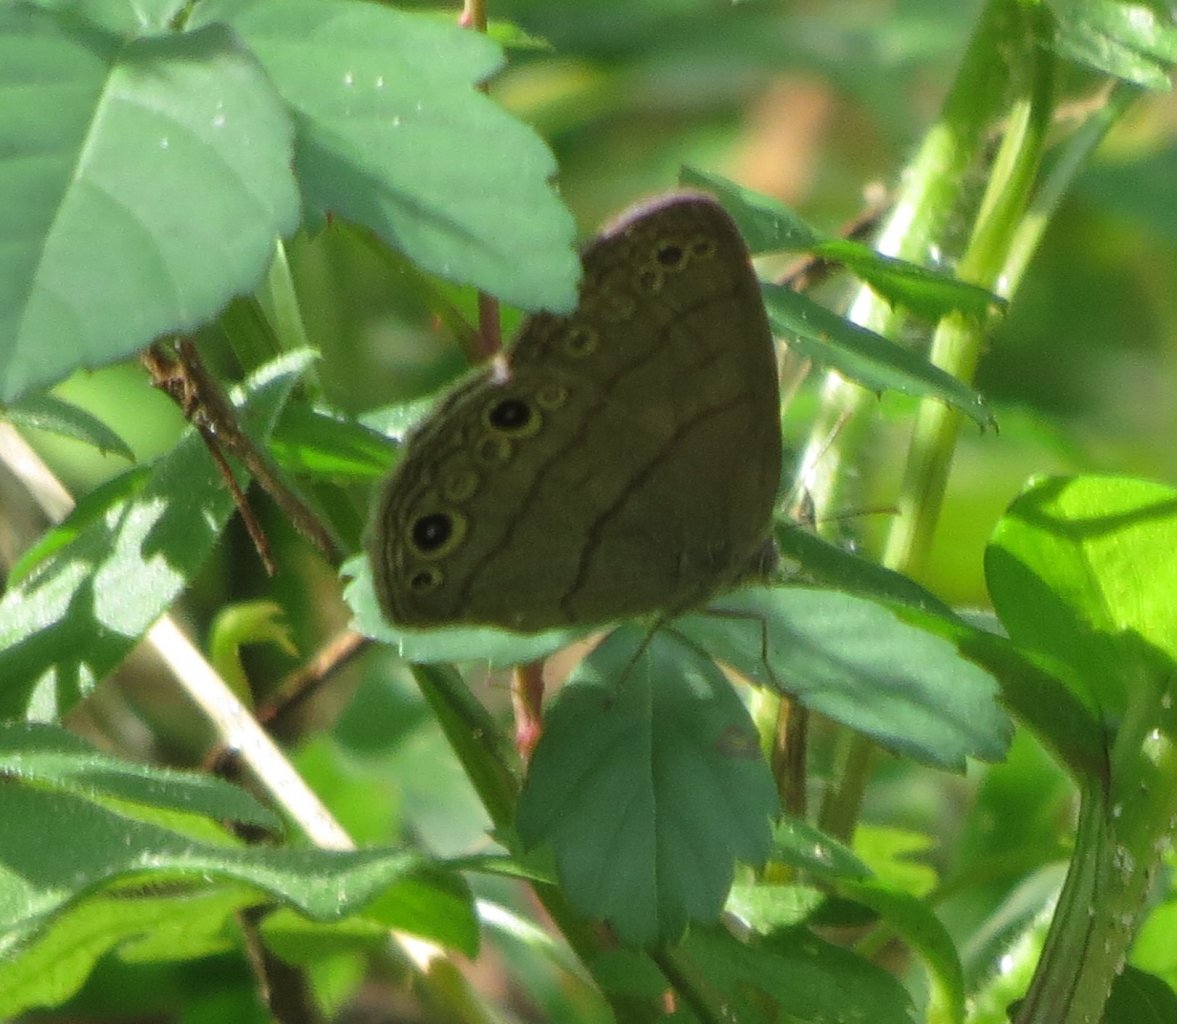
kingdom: Animalia
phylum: Arthropoda
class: Insecta
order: Lepidoptera
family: Nymphalidae
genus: Hermeuptychia
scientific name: Hermeuptychia hermes
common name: Carolina Satyr
